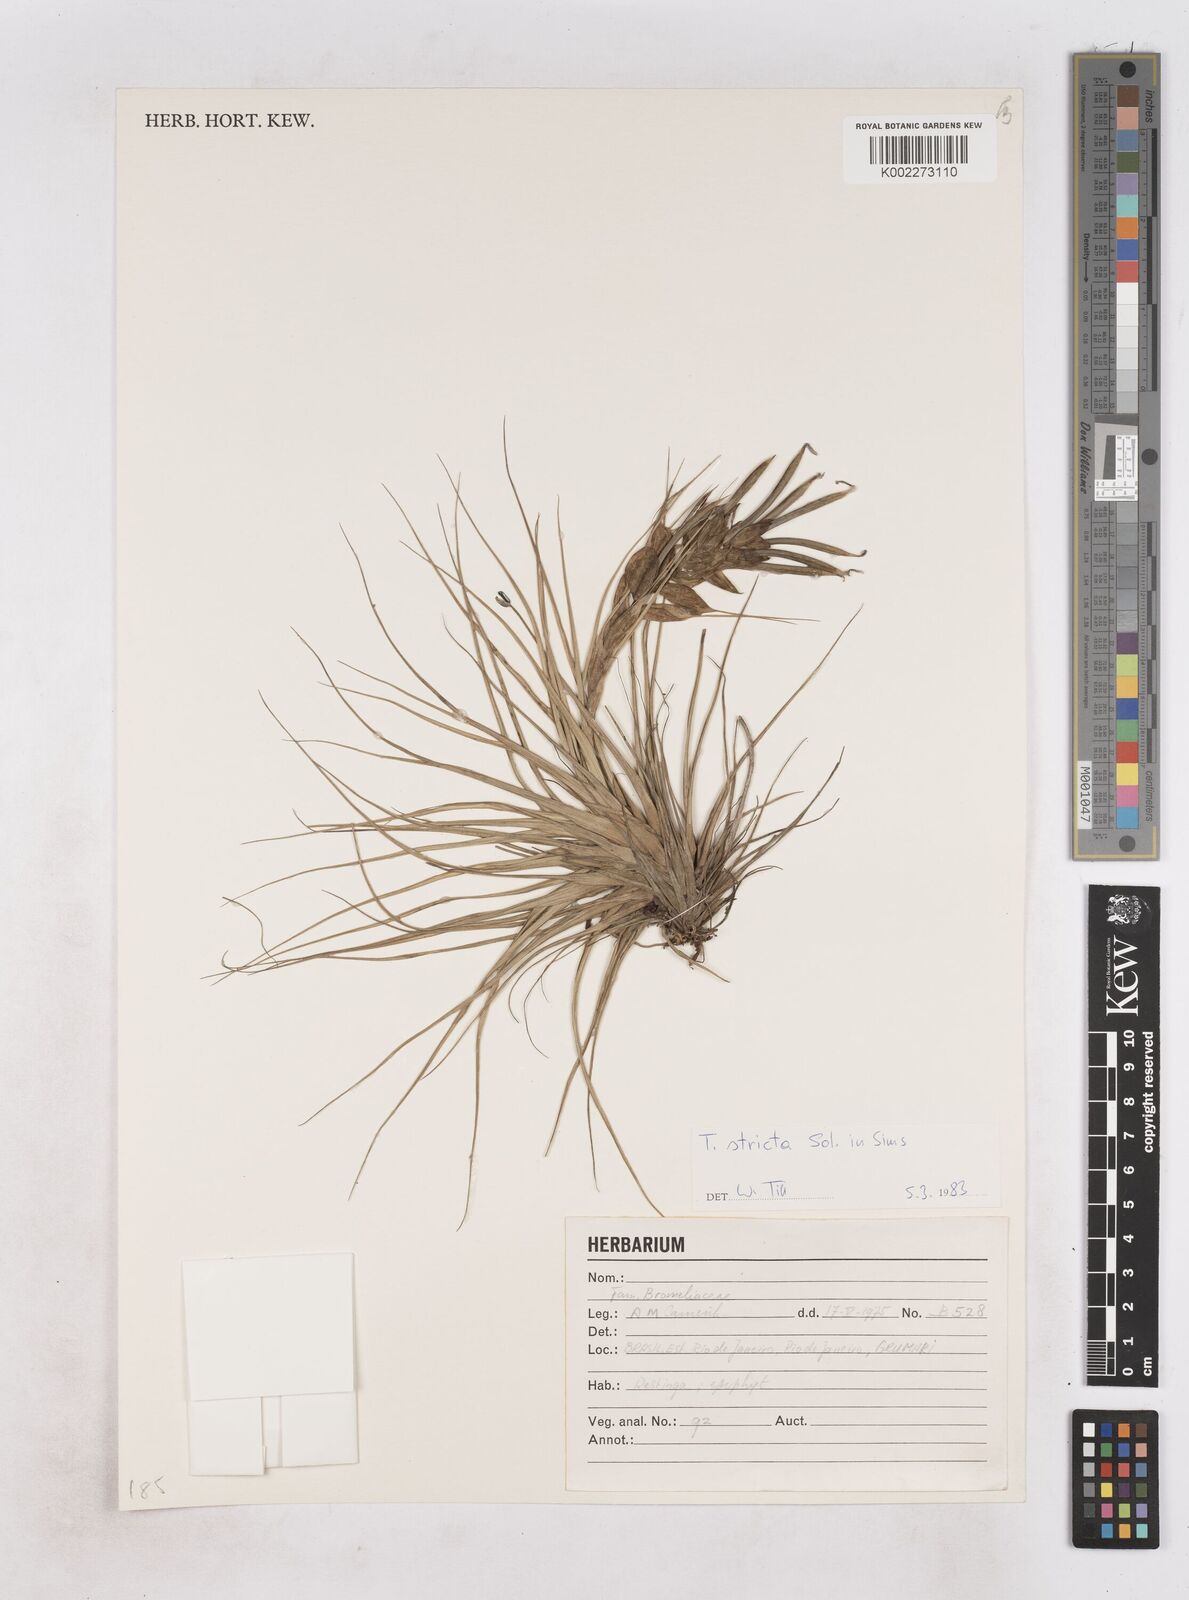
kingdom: Plantae
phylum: Tracheophyta
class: Liliopsida
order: Poales
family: Bromeliaceae
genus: Tillandsia
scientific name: Tillandsia stricta
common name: Airplant
